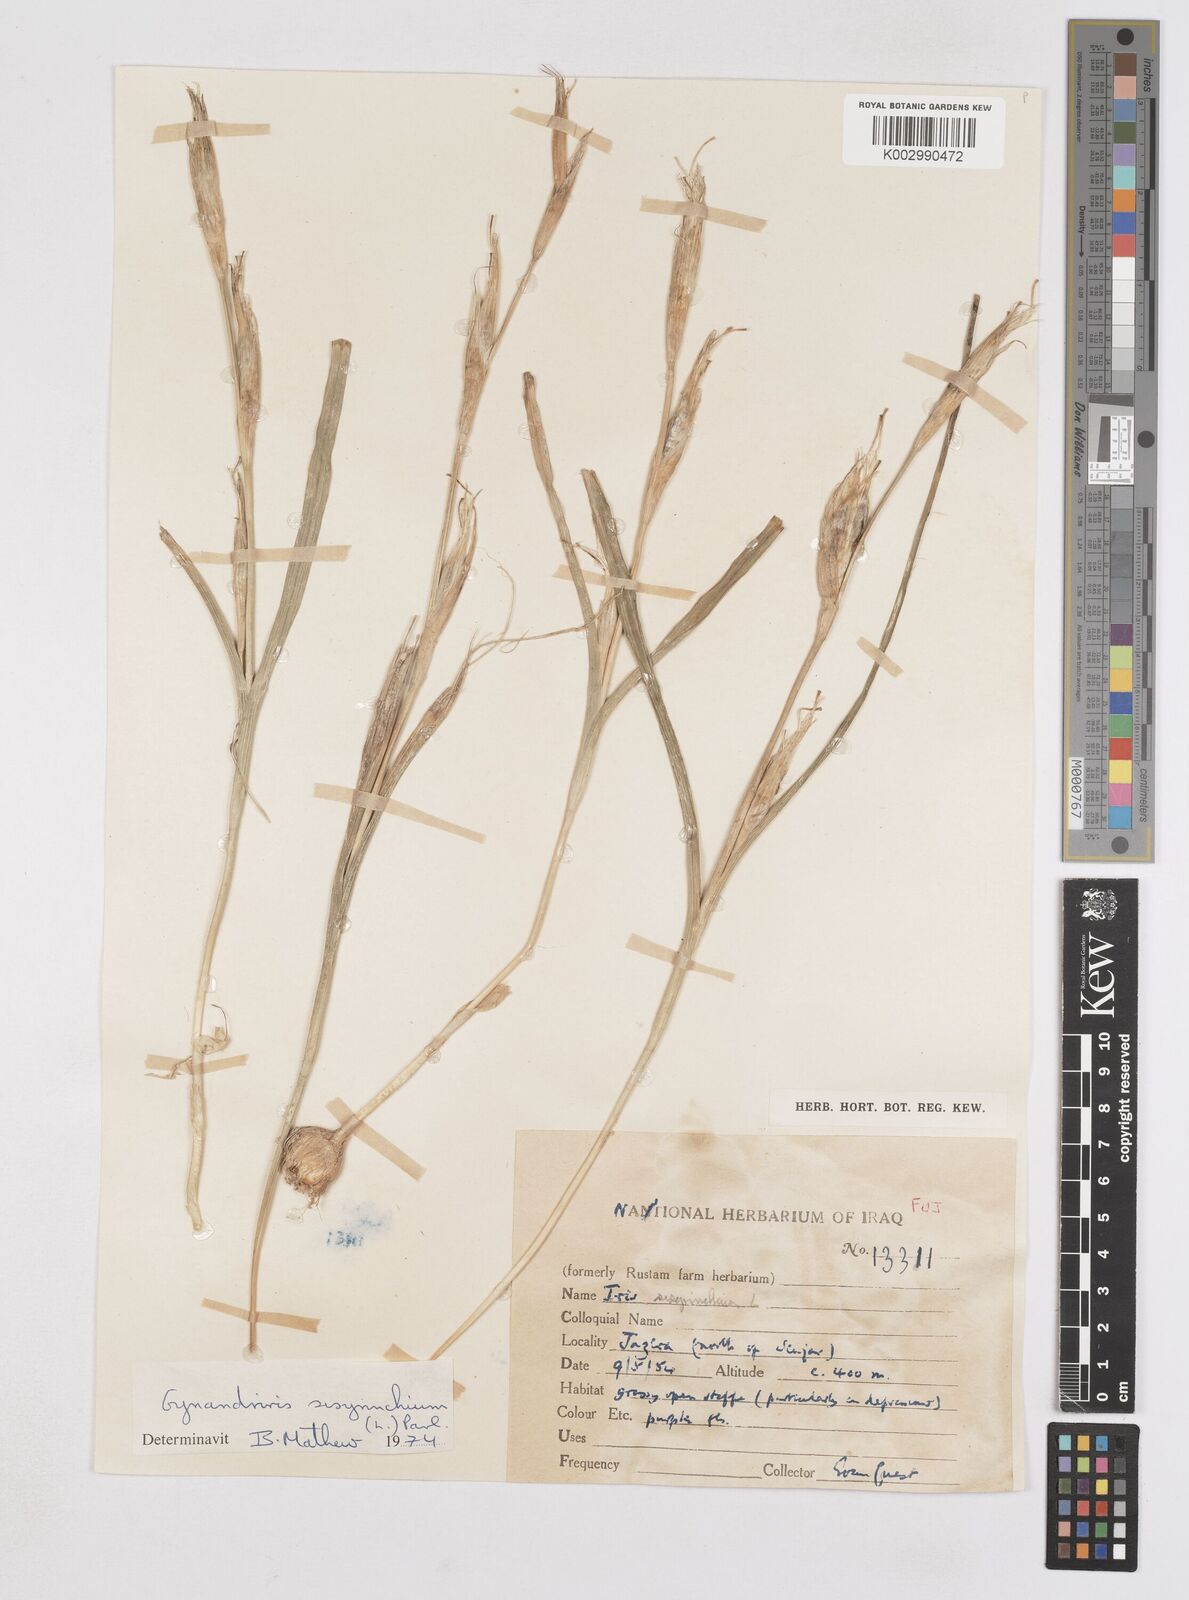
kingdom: Plantae
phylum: Tracheophyta
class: Liliopsida
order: Asparagales
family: Iridaceae
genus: Moraea
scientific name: Moraea sisyrinchium
